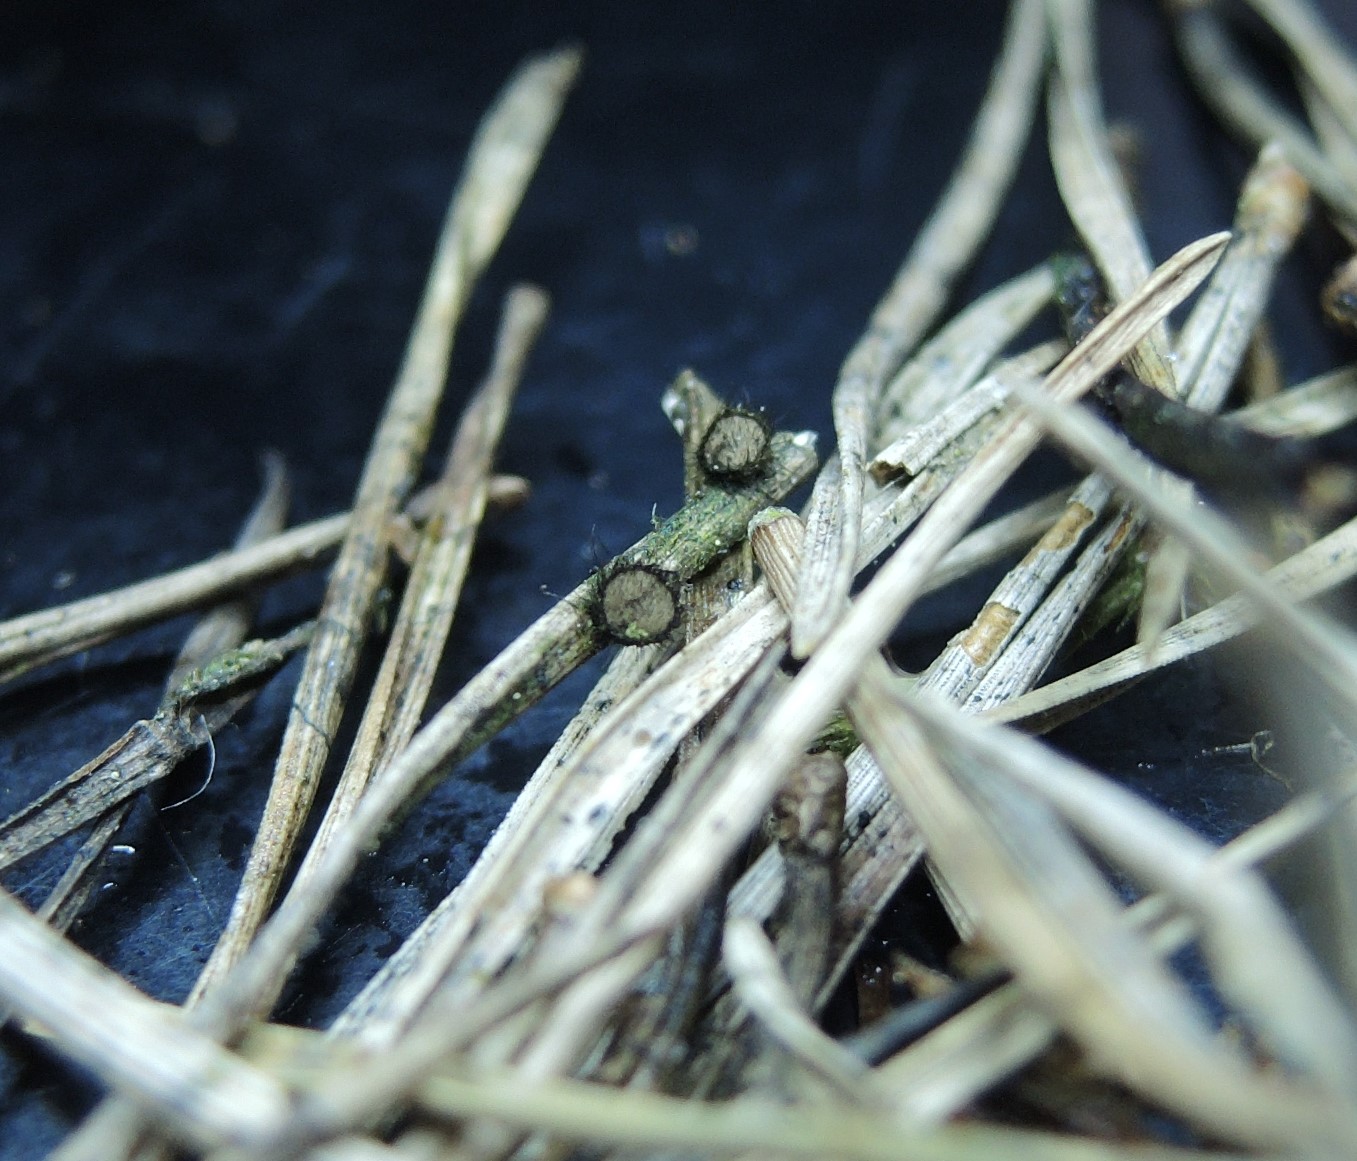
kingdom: Fungi
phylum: Ascomycota
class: Pezizomycetes
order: Pezizales
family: Chorioactidaceae
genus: Desmazierella
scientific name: Desmazierella acicola
